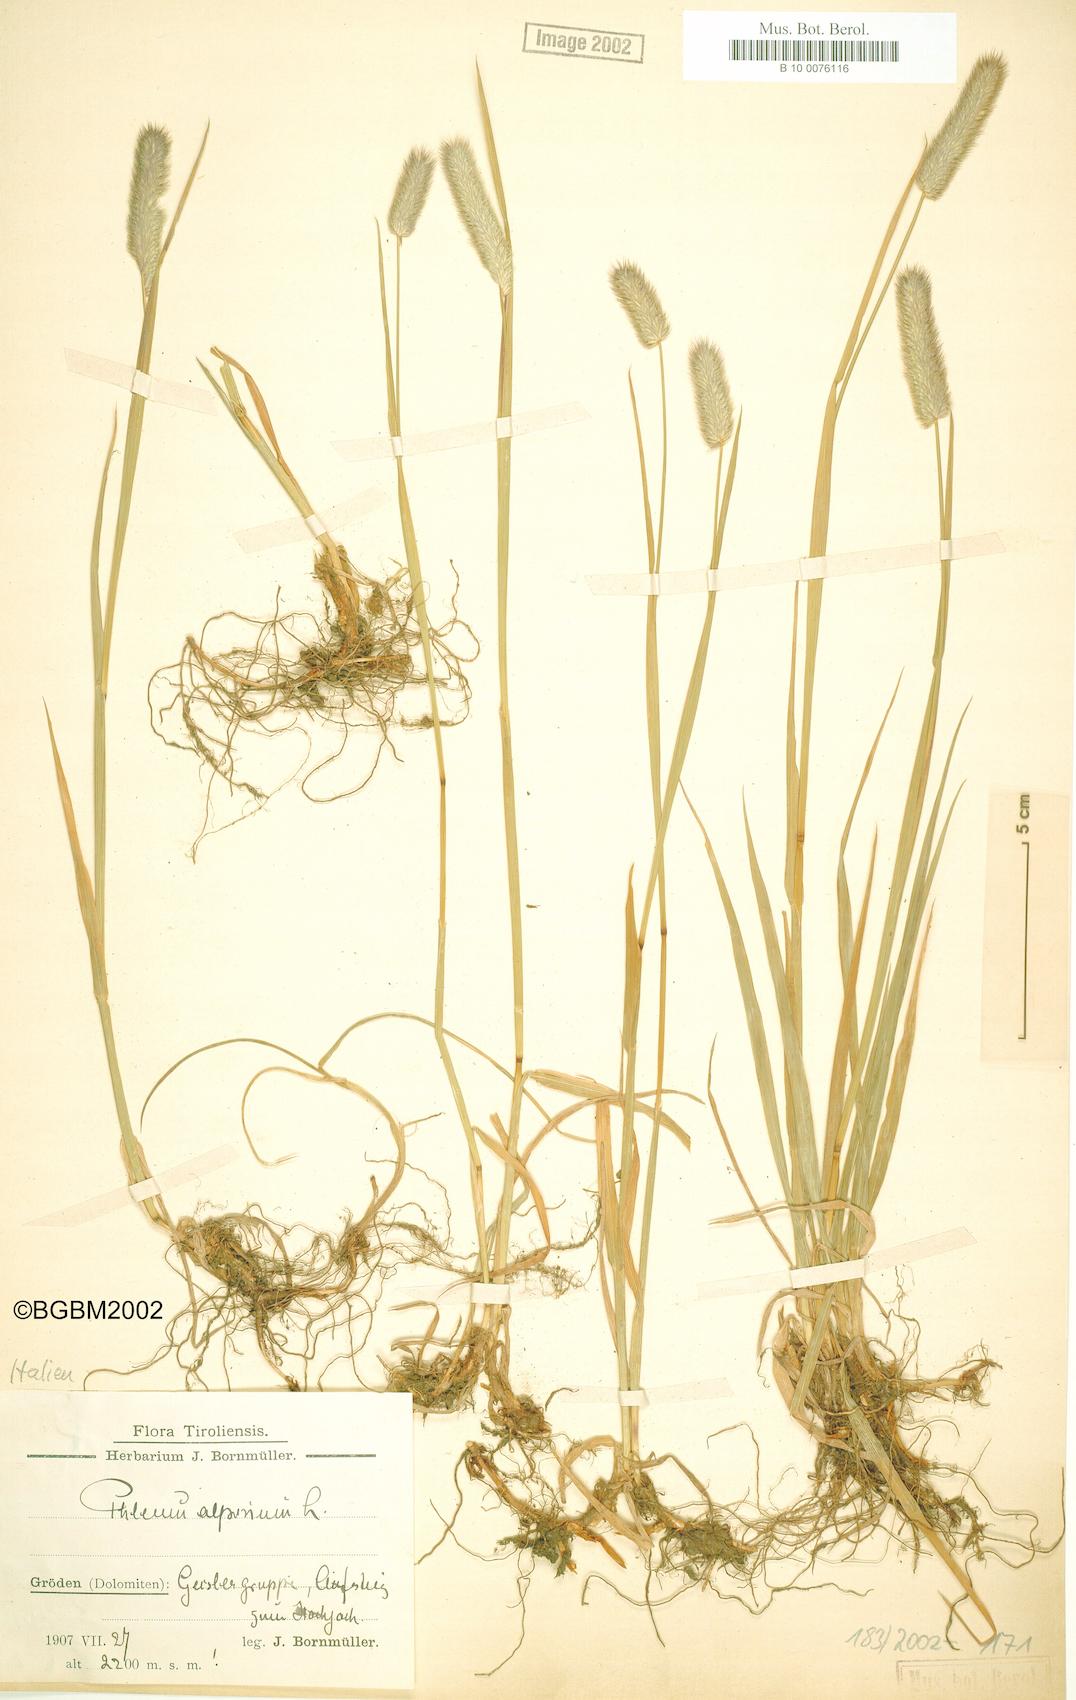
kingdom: Plantae
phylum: Tracheophyta
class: Liliopsida
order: Poales
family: Poaceae
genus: Phleum
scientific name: Phleum alpinum
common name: Alpine cat's-tail
